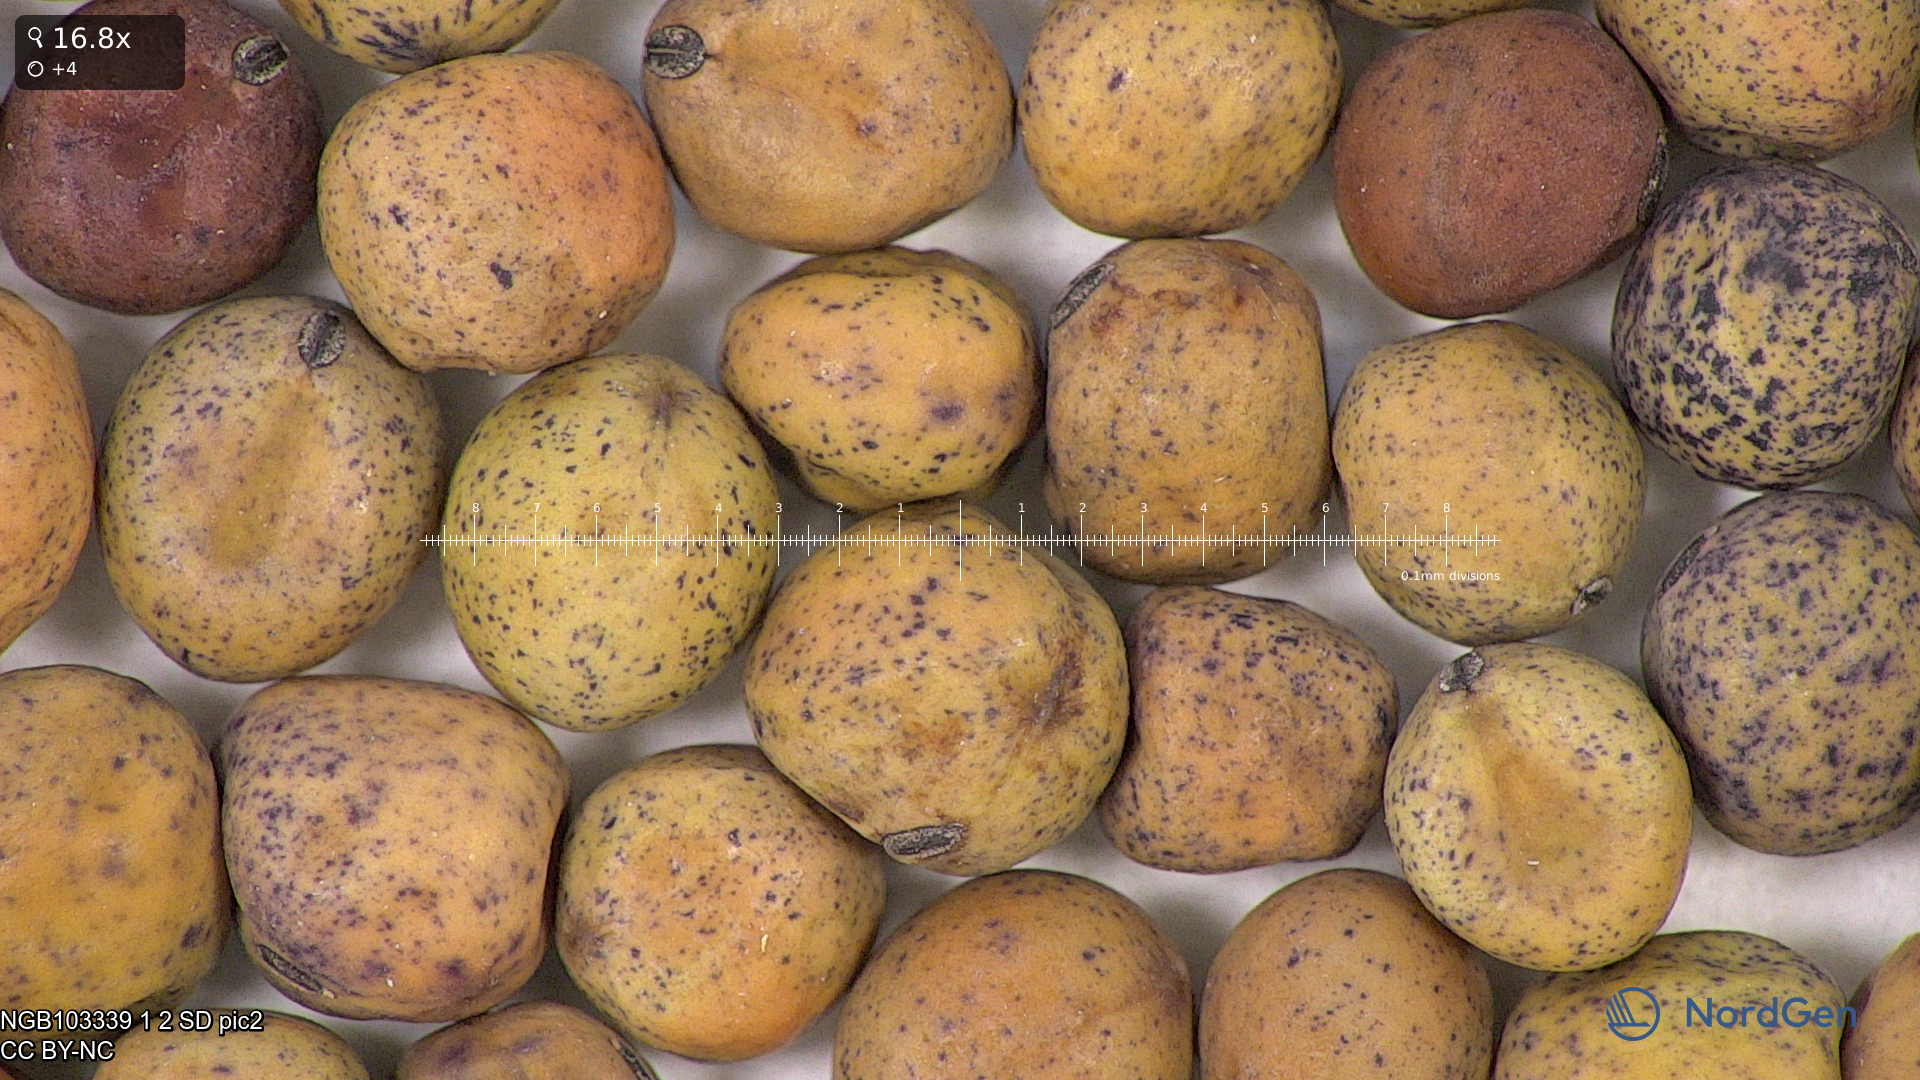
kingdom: Plantae
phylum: Tracheophyta
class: Magnoliopsida
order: Fabales
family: Fabaceae
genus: Lathyrus
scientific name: Lathyrus oleraceus
